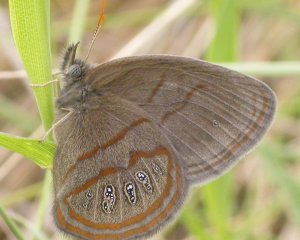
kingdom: Animalia
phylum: Arthropoda
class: Insecta
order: Lepidoptera
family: Nymphalidae
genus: Euptychia
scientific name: Euptychia phocion
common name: Georgia Satyr
